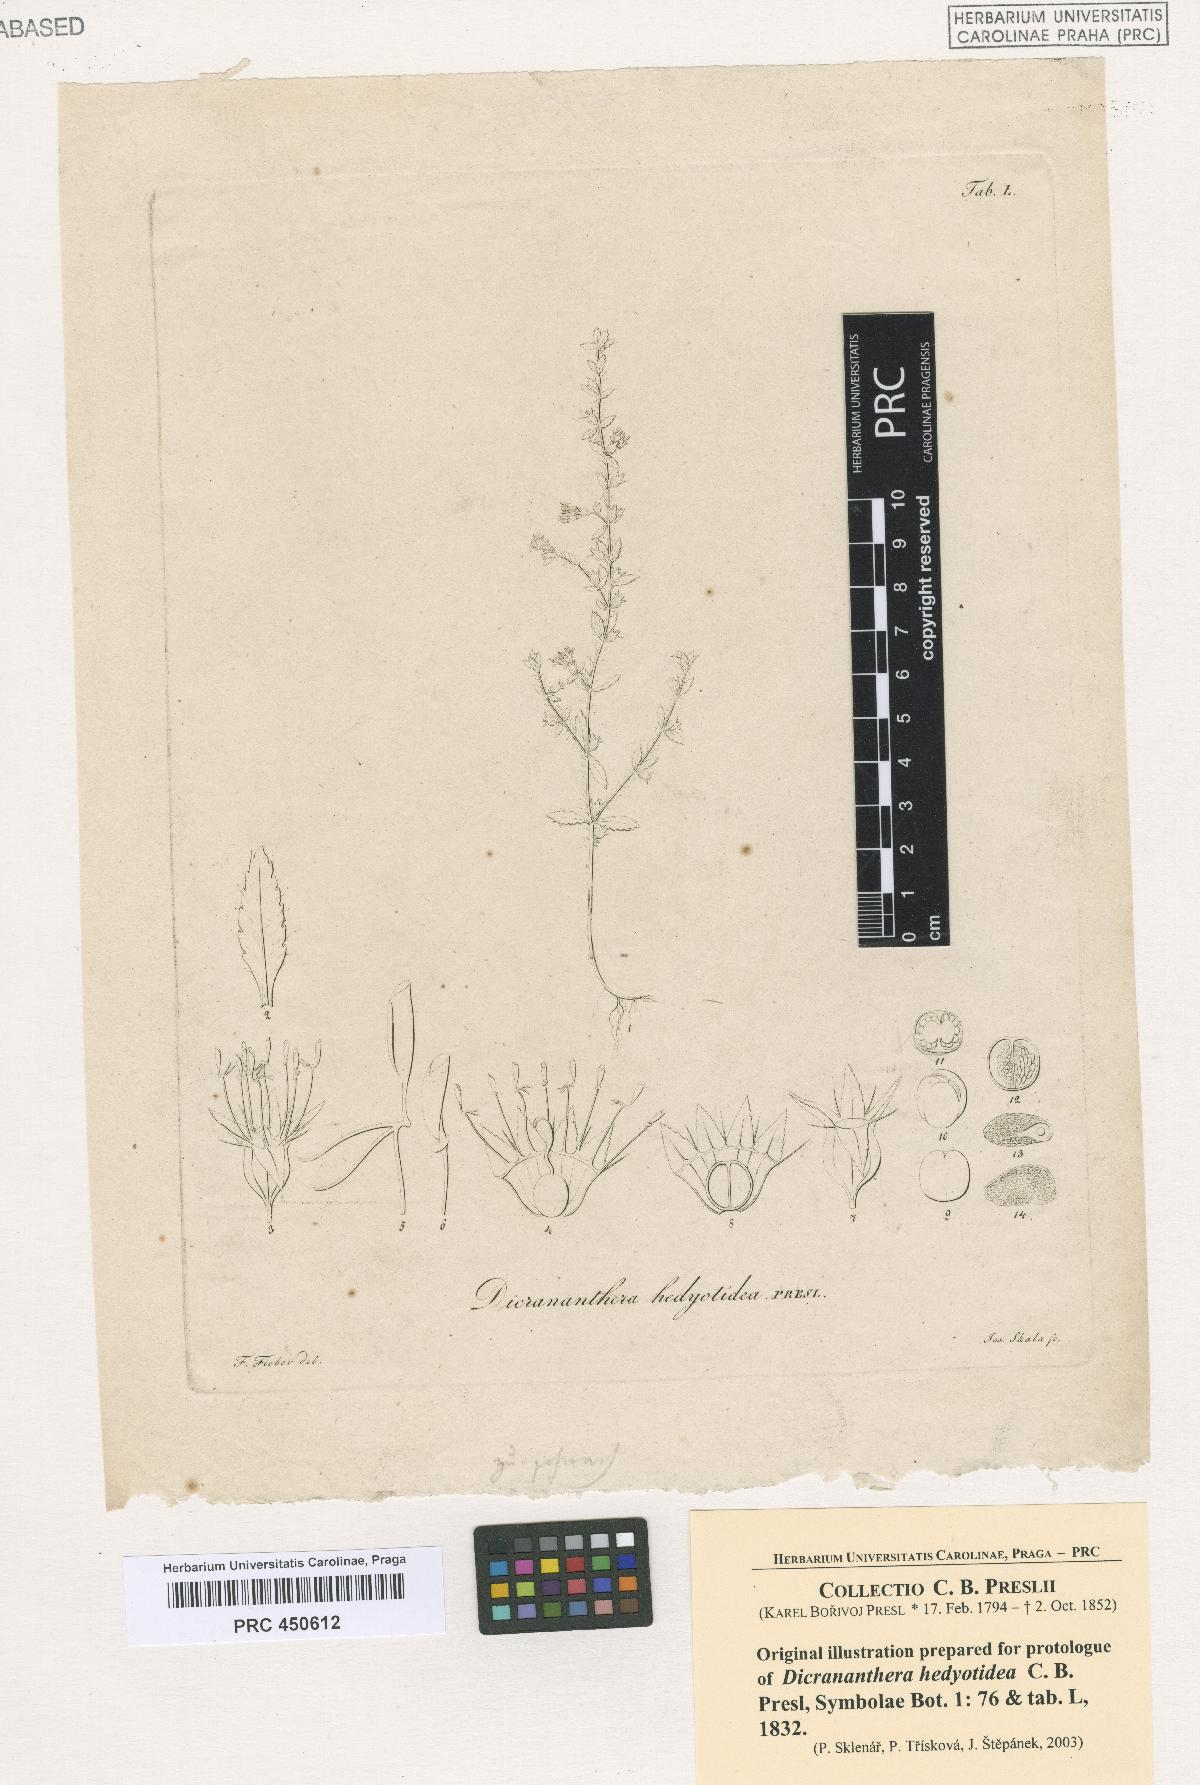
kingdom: Plantae
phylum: Tracheophyta
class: Magnoliopsida
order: Myrtales
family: Melastomataceae
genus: Dicrananthera
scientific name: Dicrananthera hedyotidea
